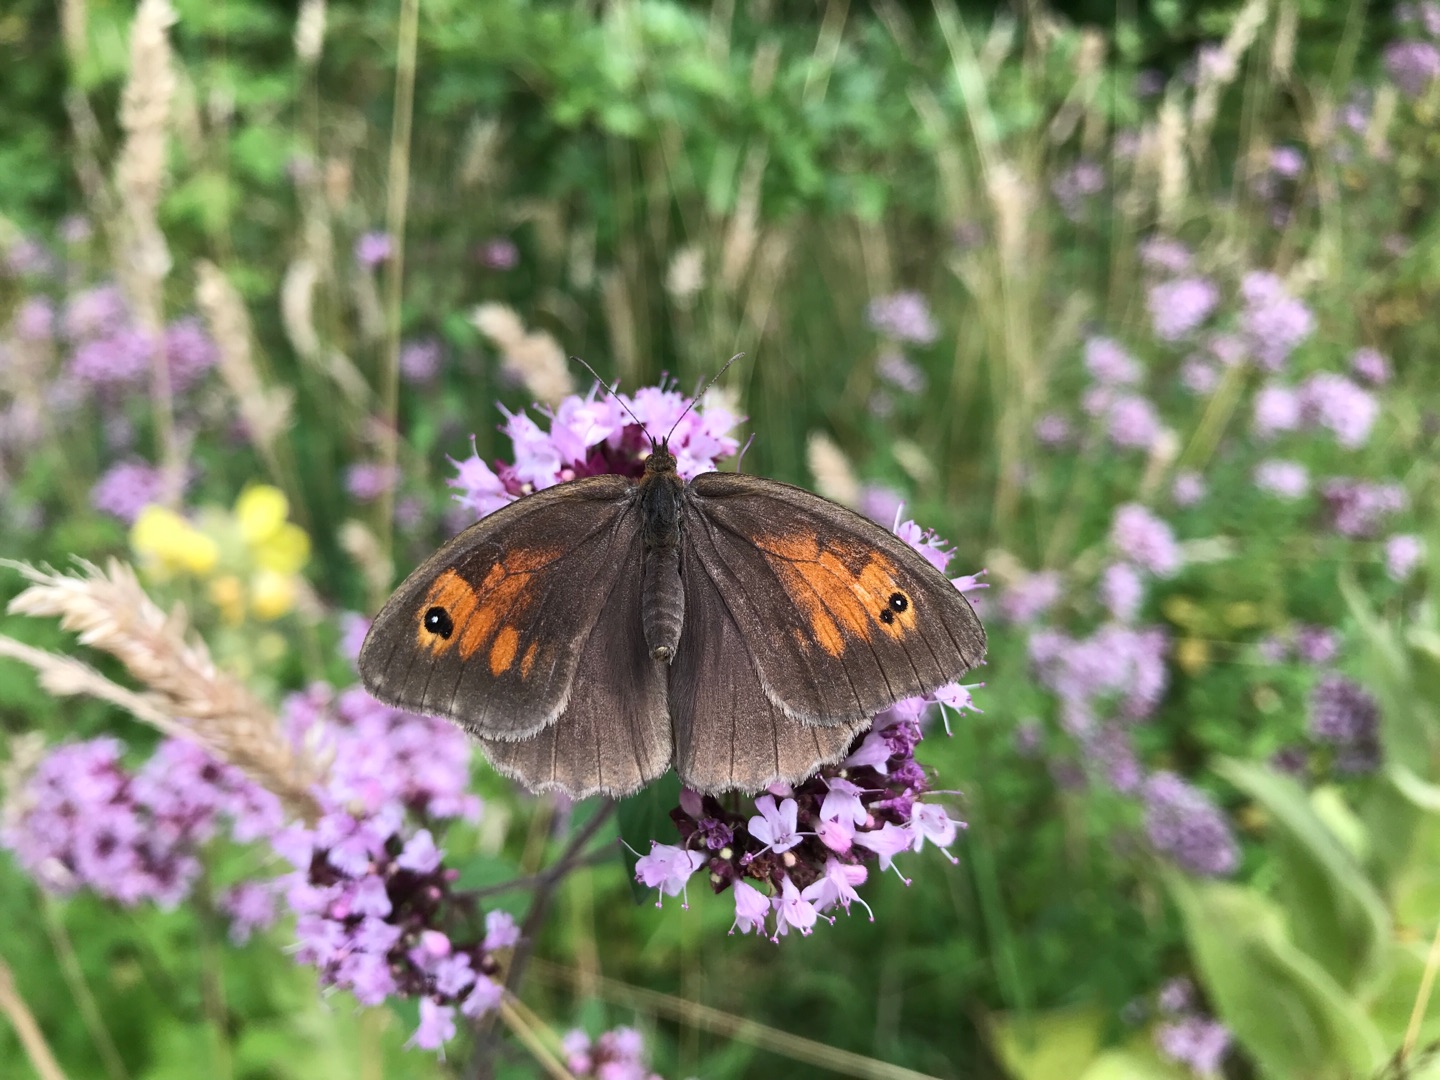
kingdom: Animalia
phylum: Arthropoda
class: Insecta
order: Lepidoptera
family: Nymphalidae
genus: Maniola
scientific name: Maniola jurtina
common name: Græsrandøje
